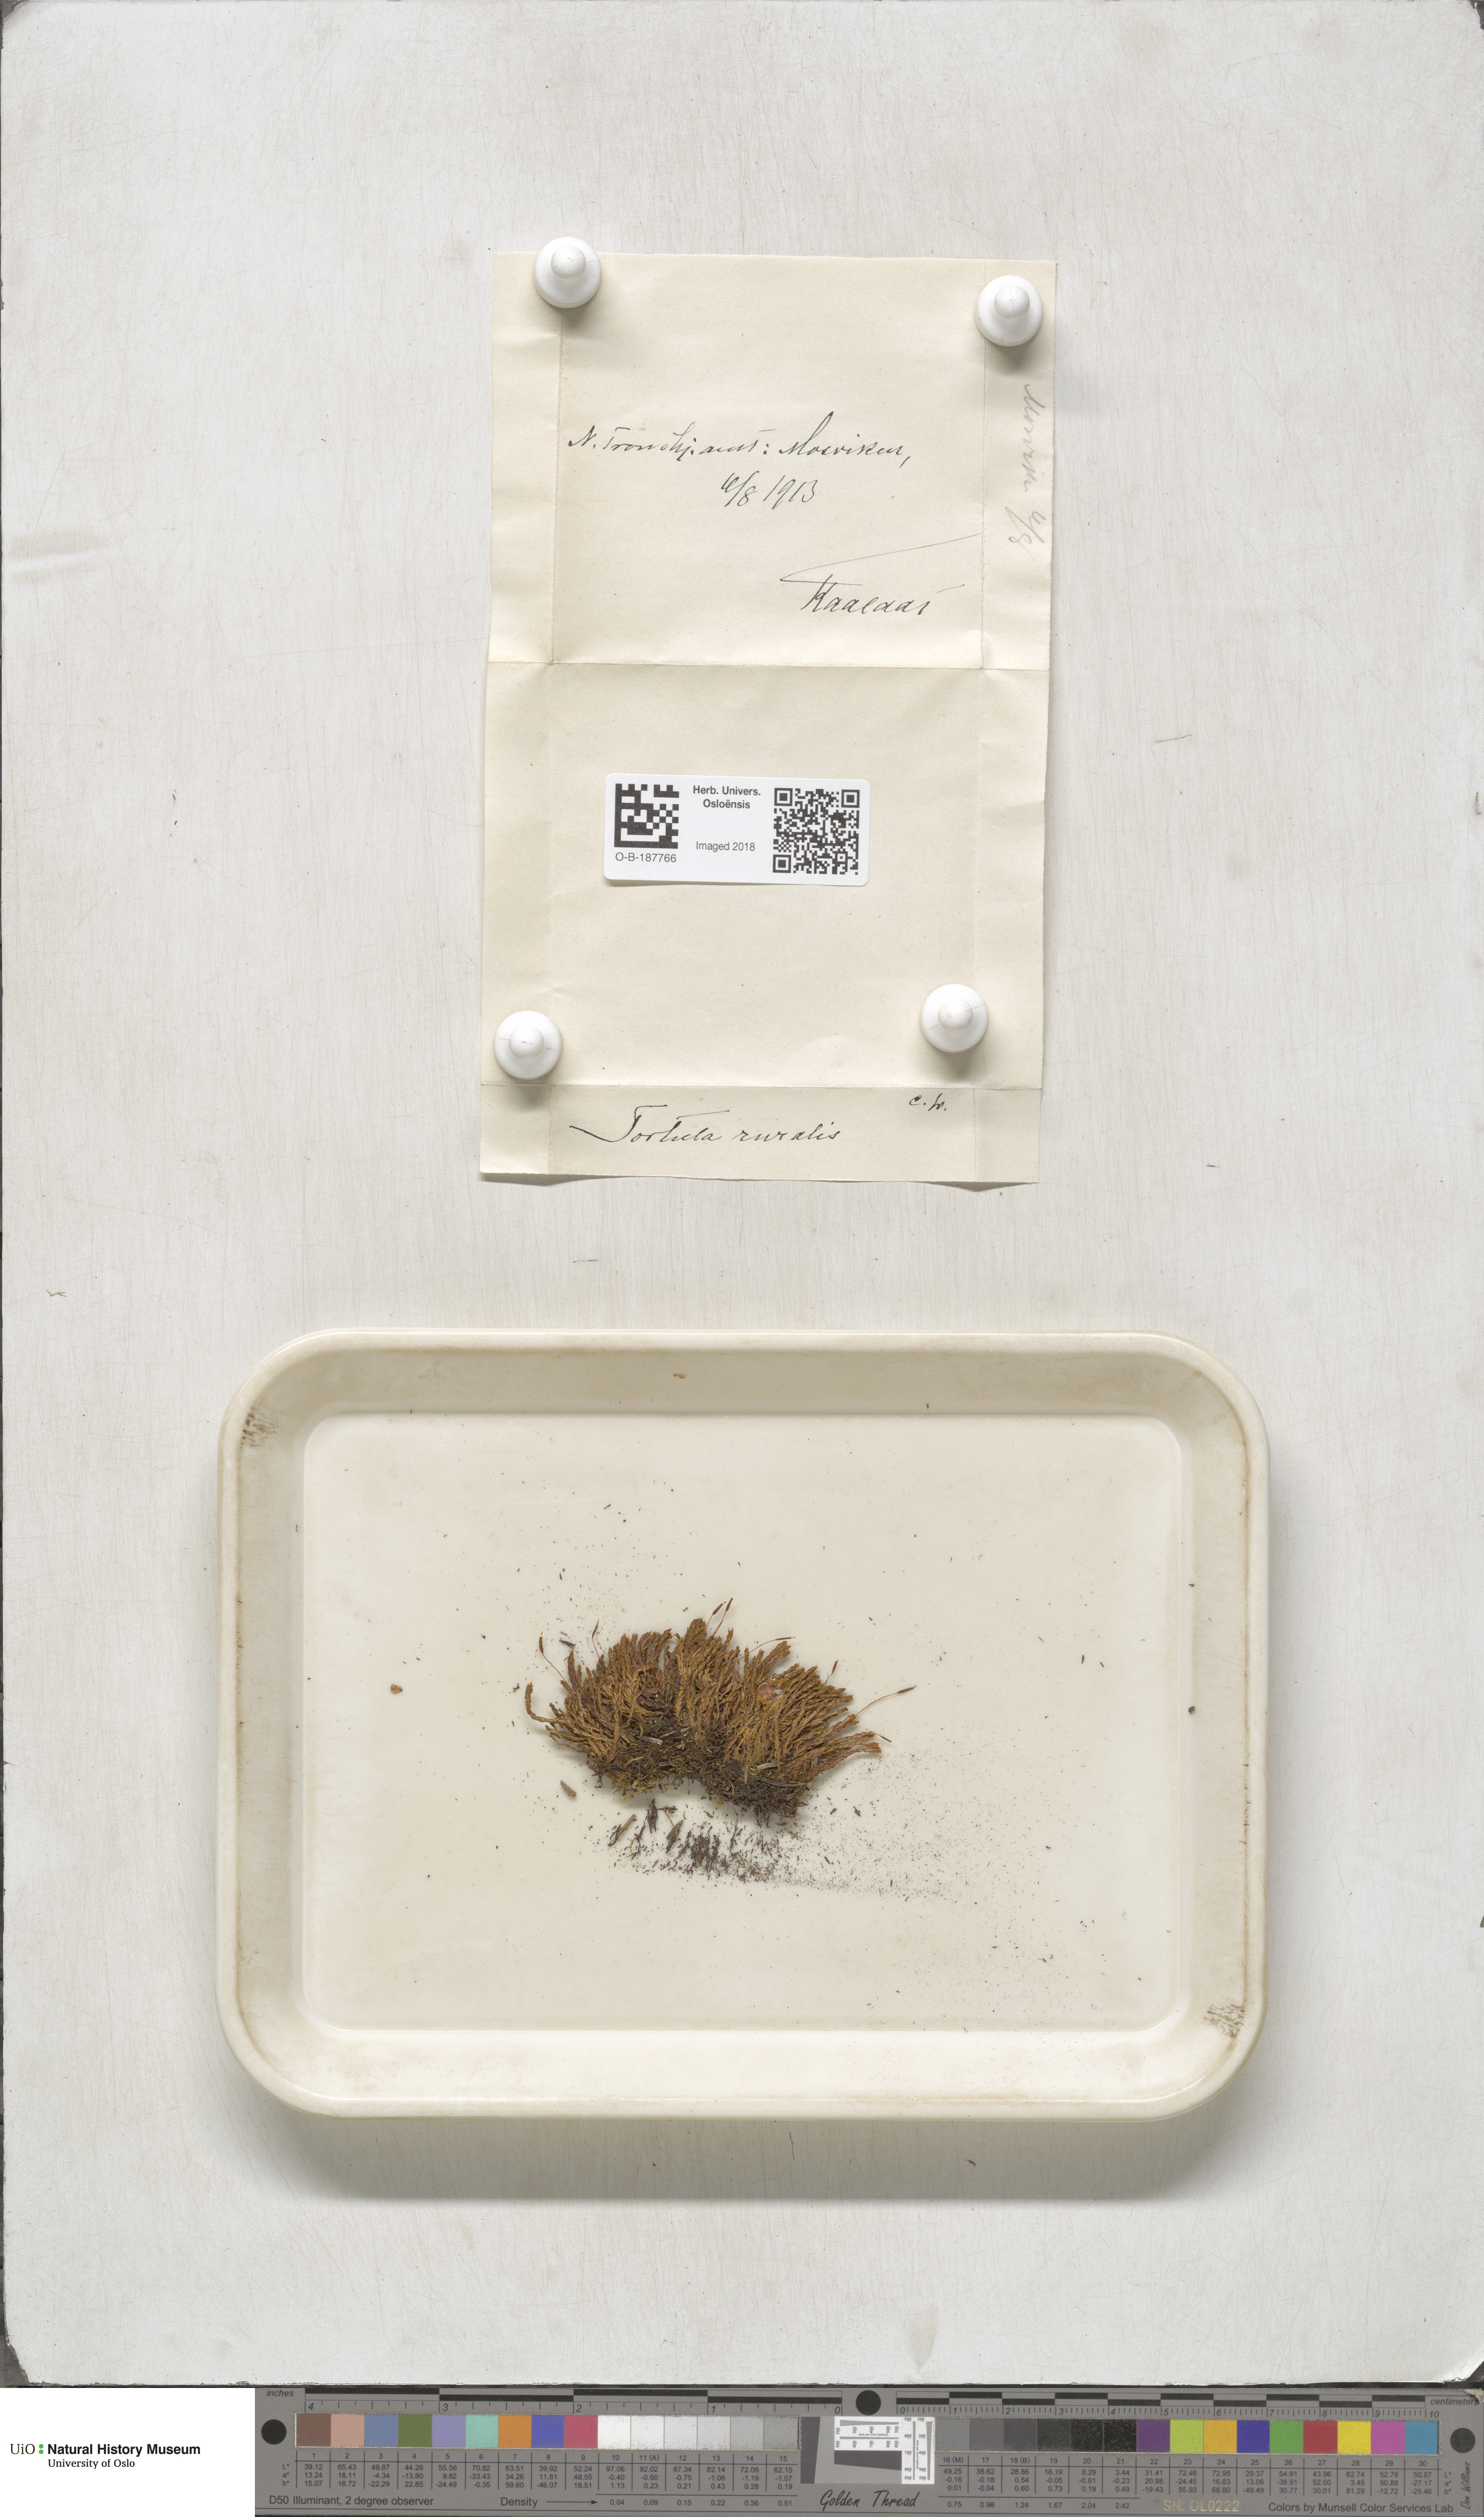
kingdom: Plantae
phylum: Bryophyta
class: Bryopsida
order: Pottiales
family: Pottiaceae
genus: Syntrichia
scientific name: Syntrichia ruralis
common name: Sidewalk screw moss
